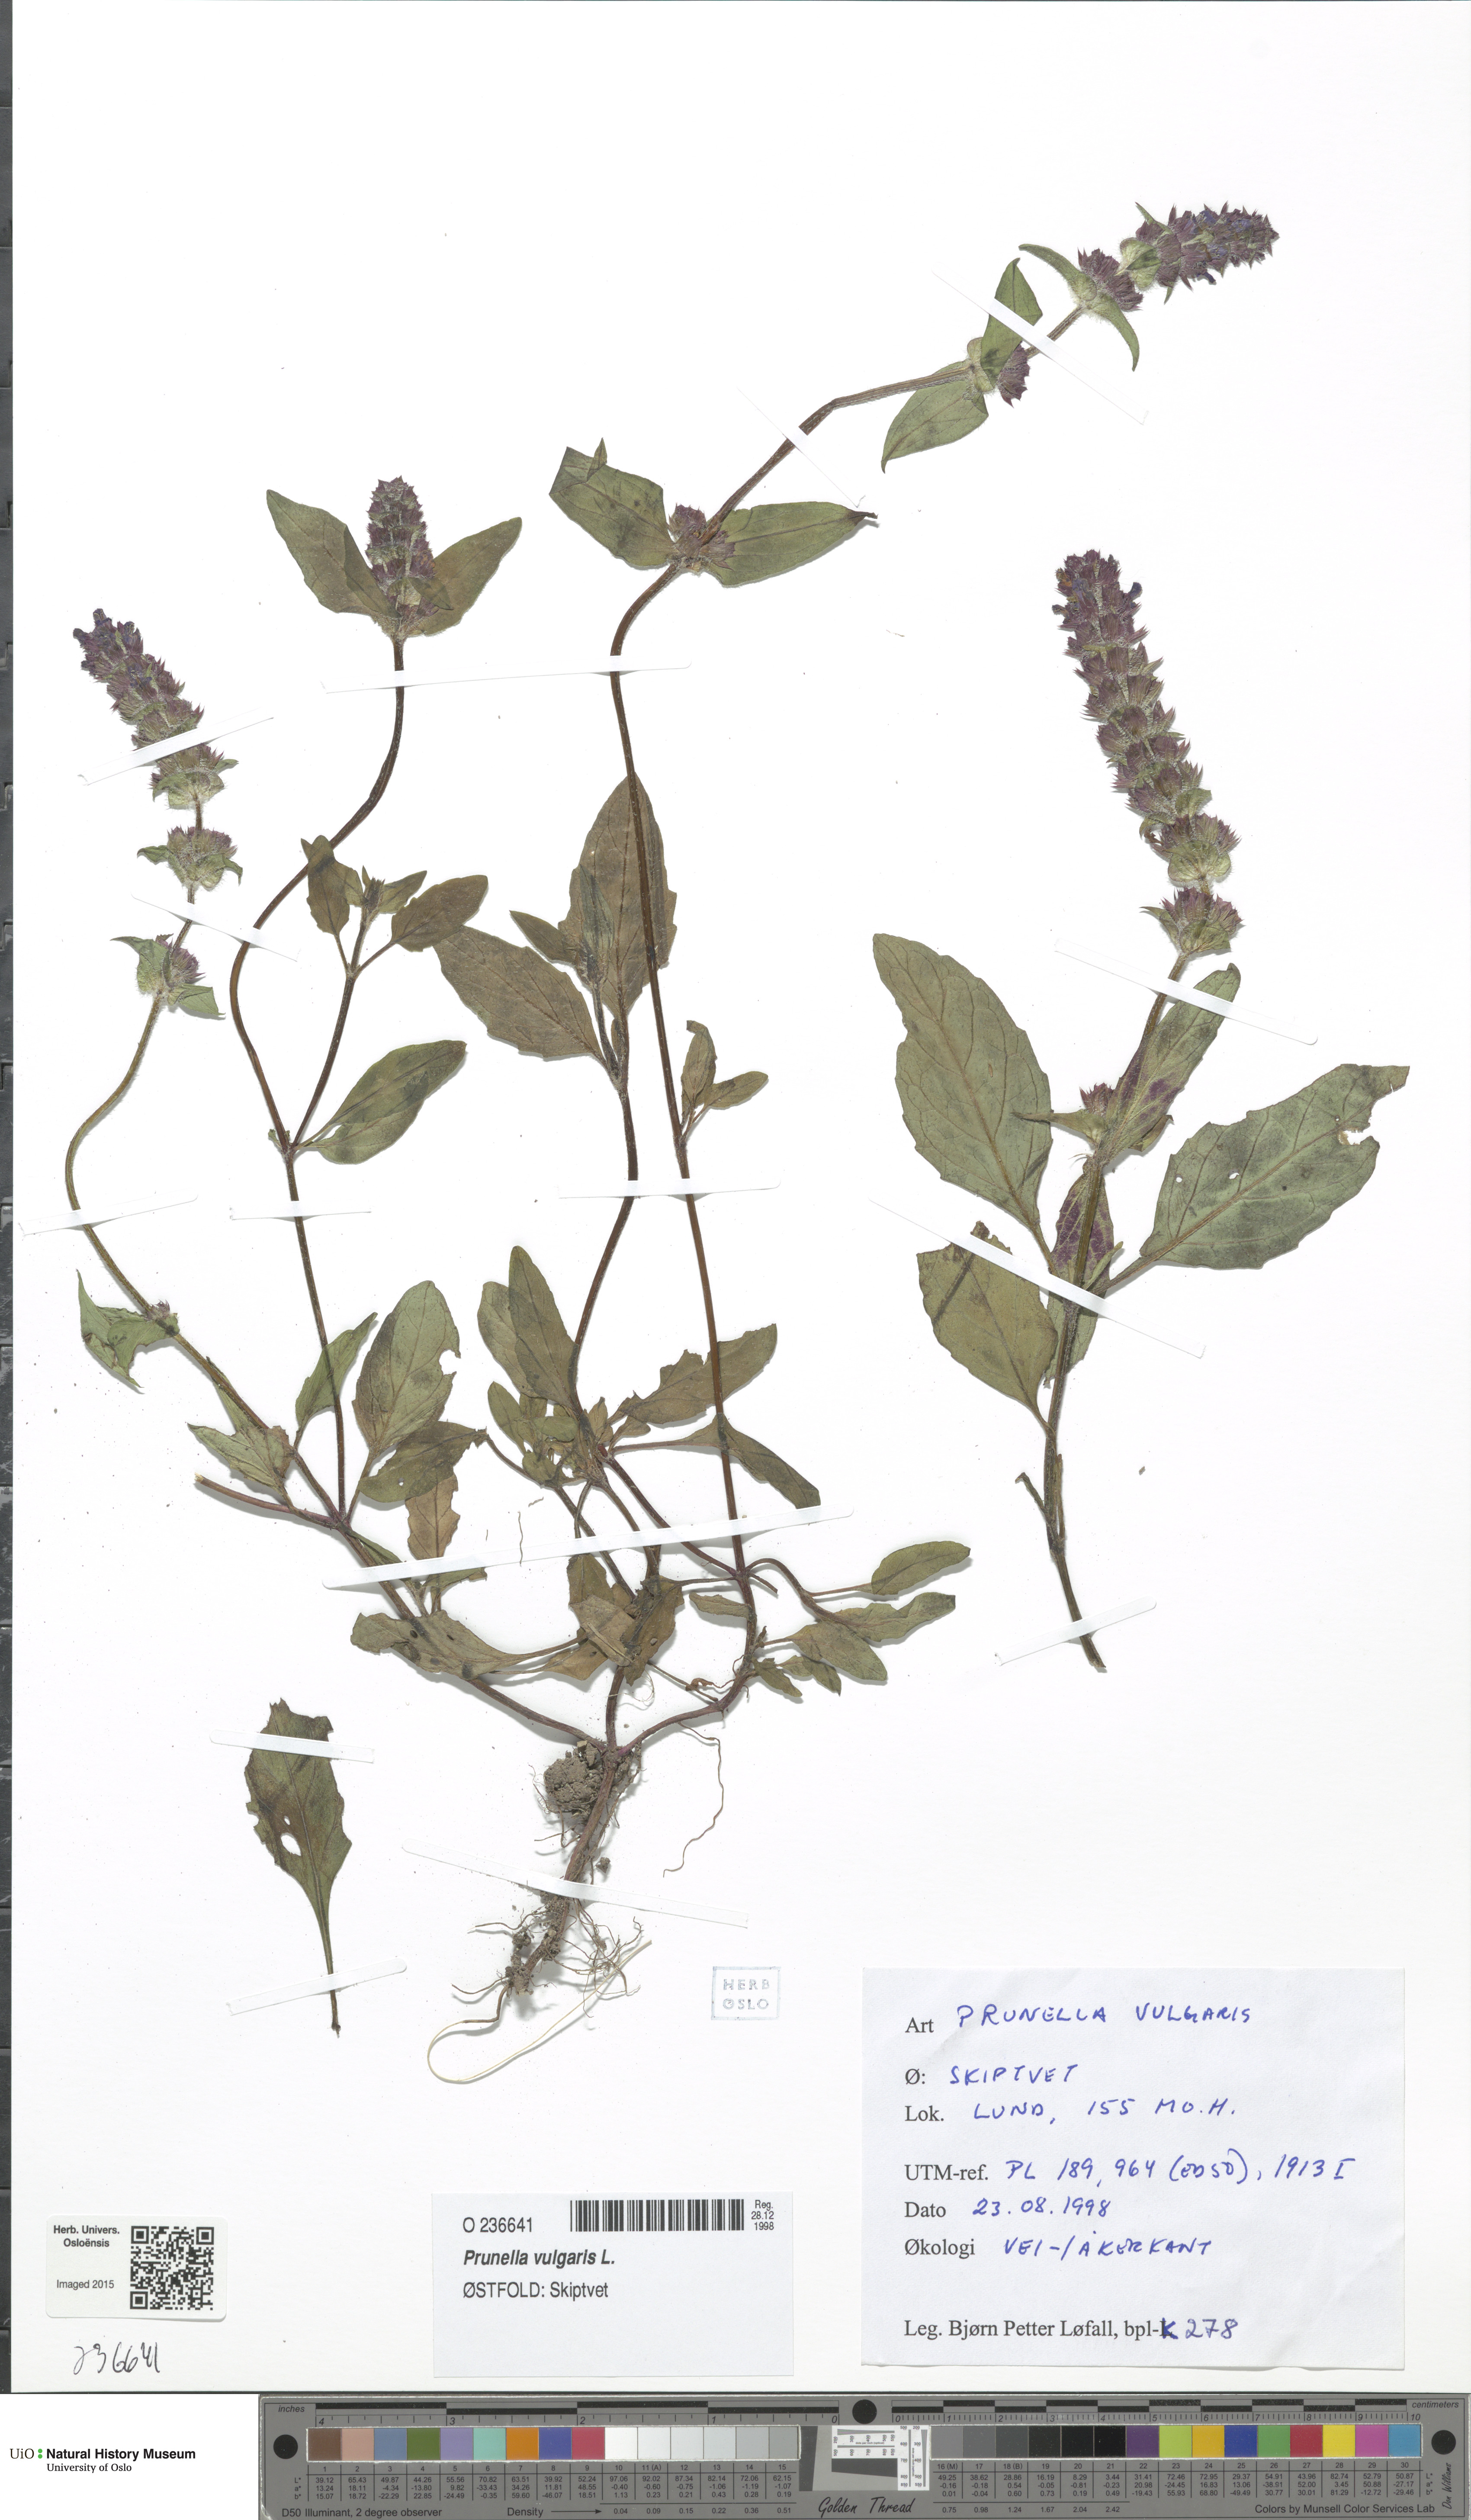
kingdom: Plantae
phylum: Tracheophyta
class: Magnoliopsida
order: Lamiales
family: Lamiaceae
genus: Prunella
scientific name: Prunella vulgaris
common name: Heal-all
